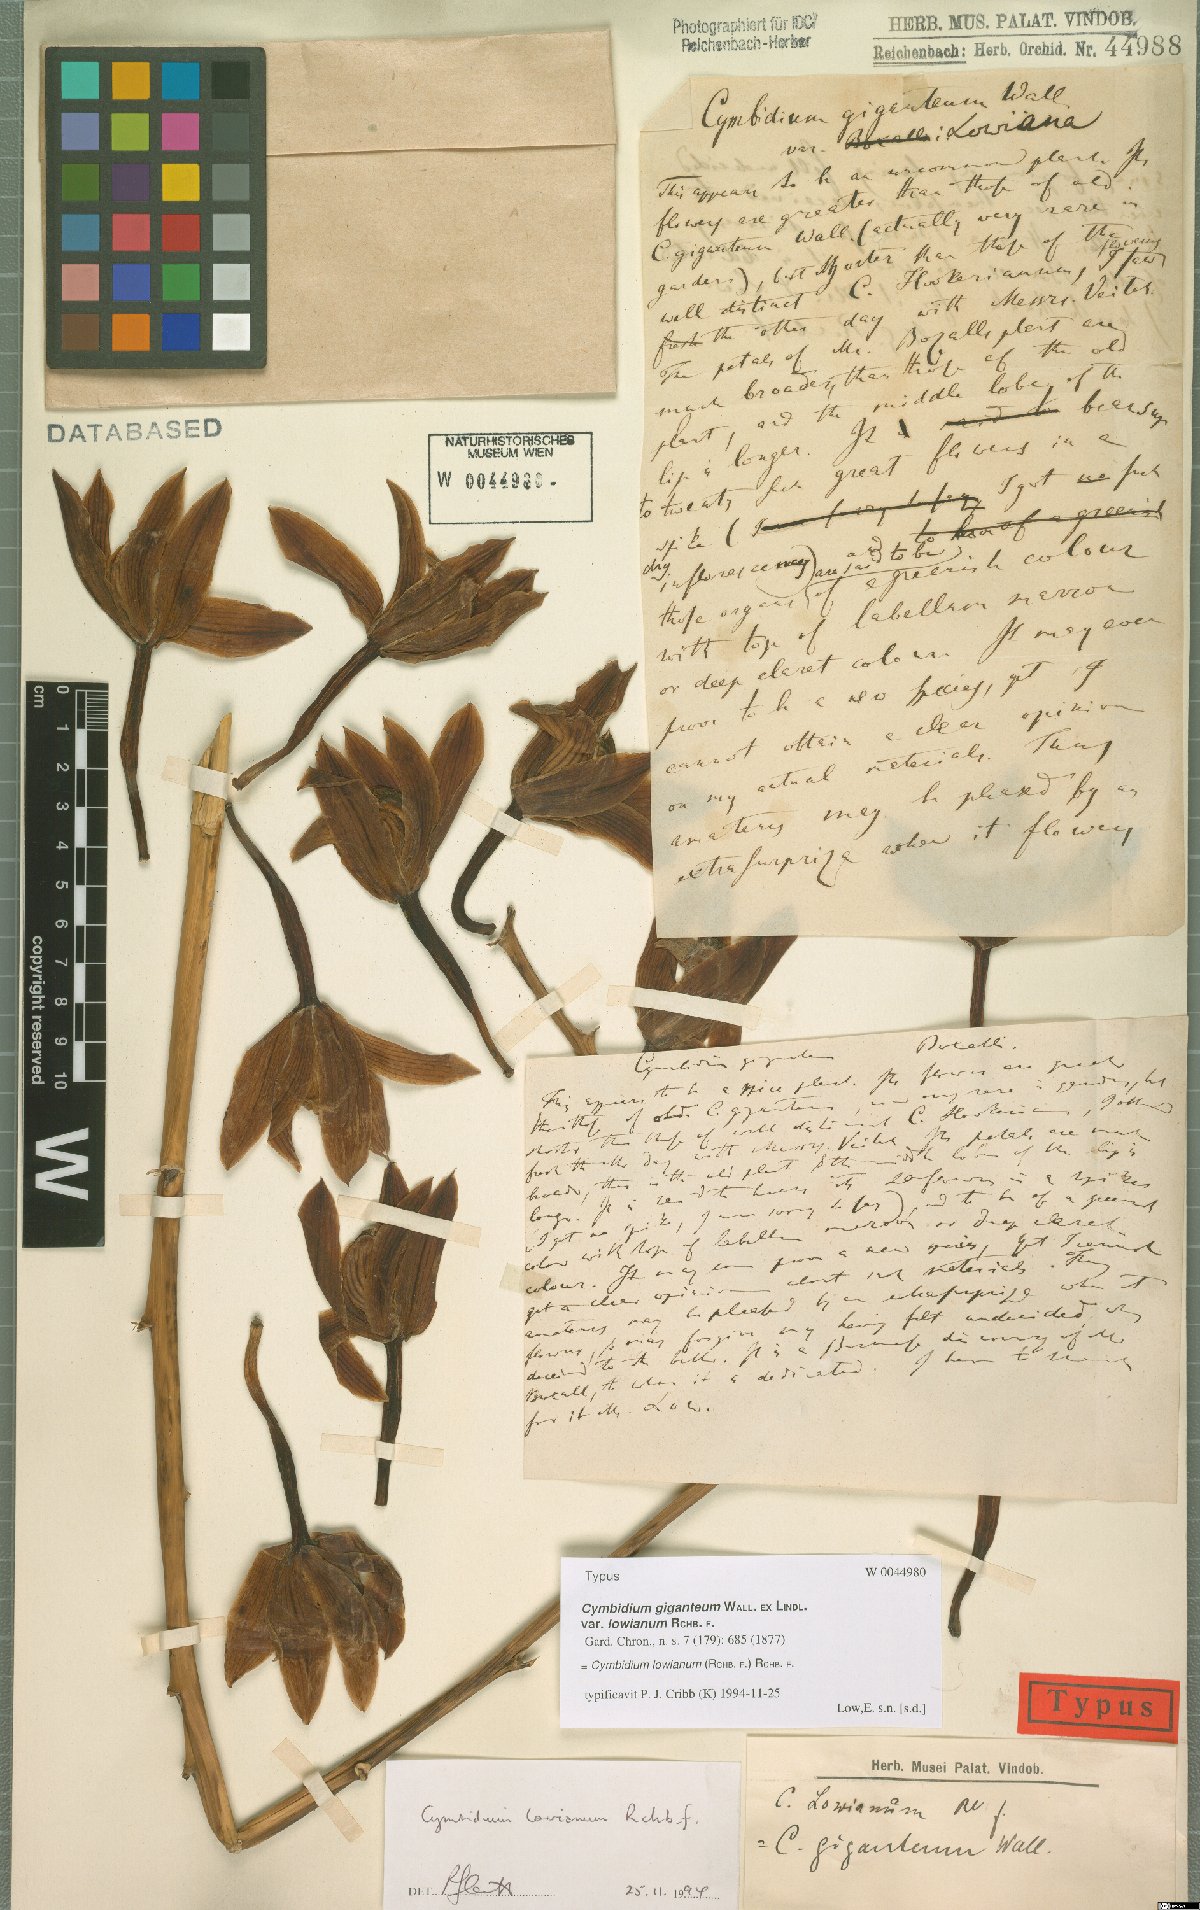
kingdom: Plantae
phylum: Tracheophyta
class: Liliopsida
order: Asparagales
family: Orchidaceae
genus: Cymbidium
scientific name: Cymbidium lowianum
